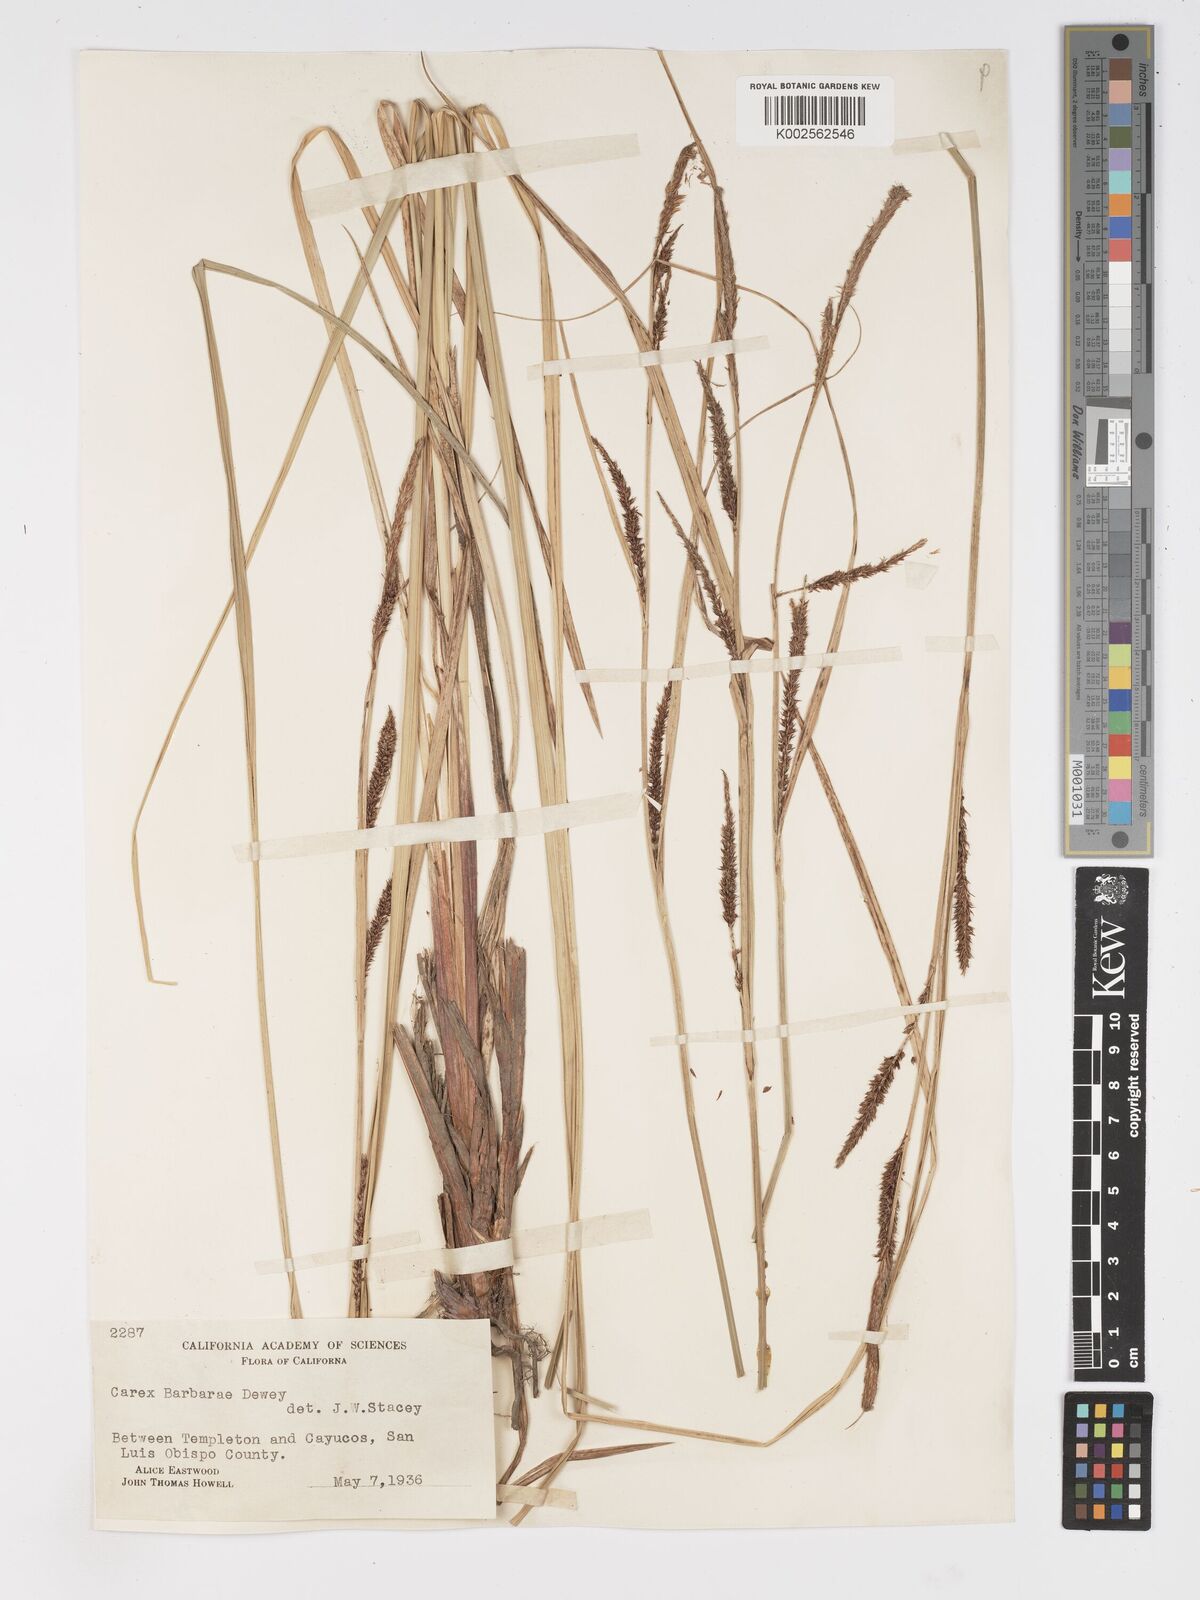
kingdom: Plantae
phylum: Tracheophyta
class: Liliopsida
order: Poales
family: Cyperaceae
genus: Carex
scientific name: Carex schottii
